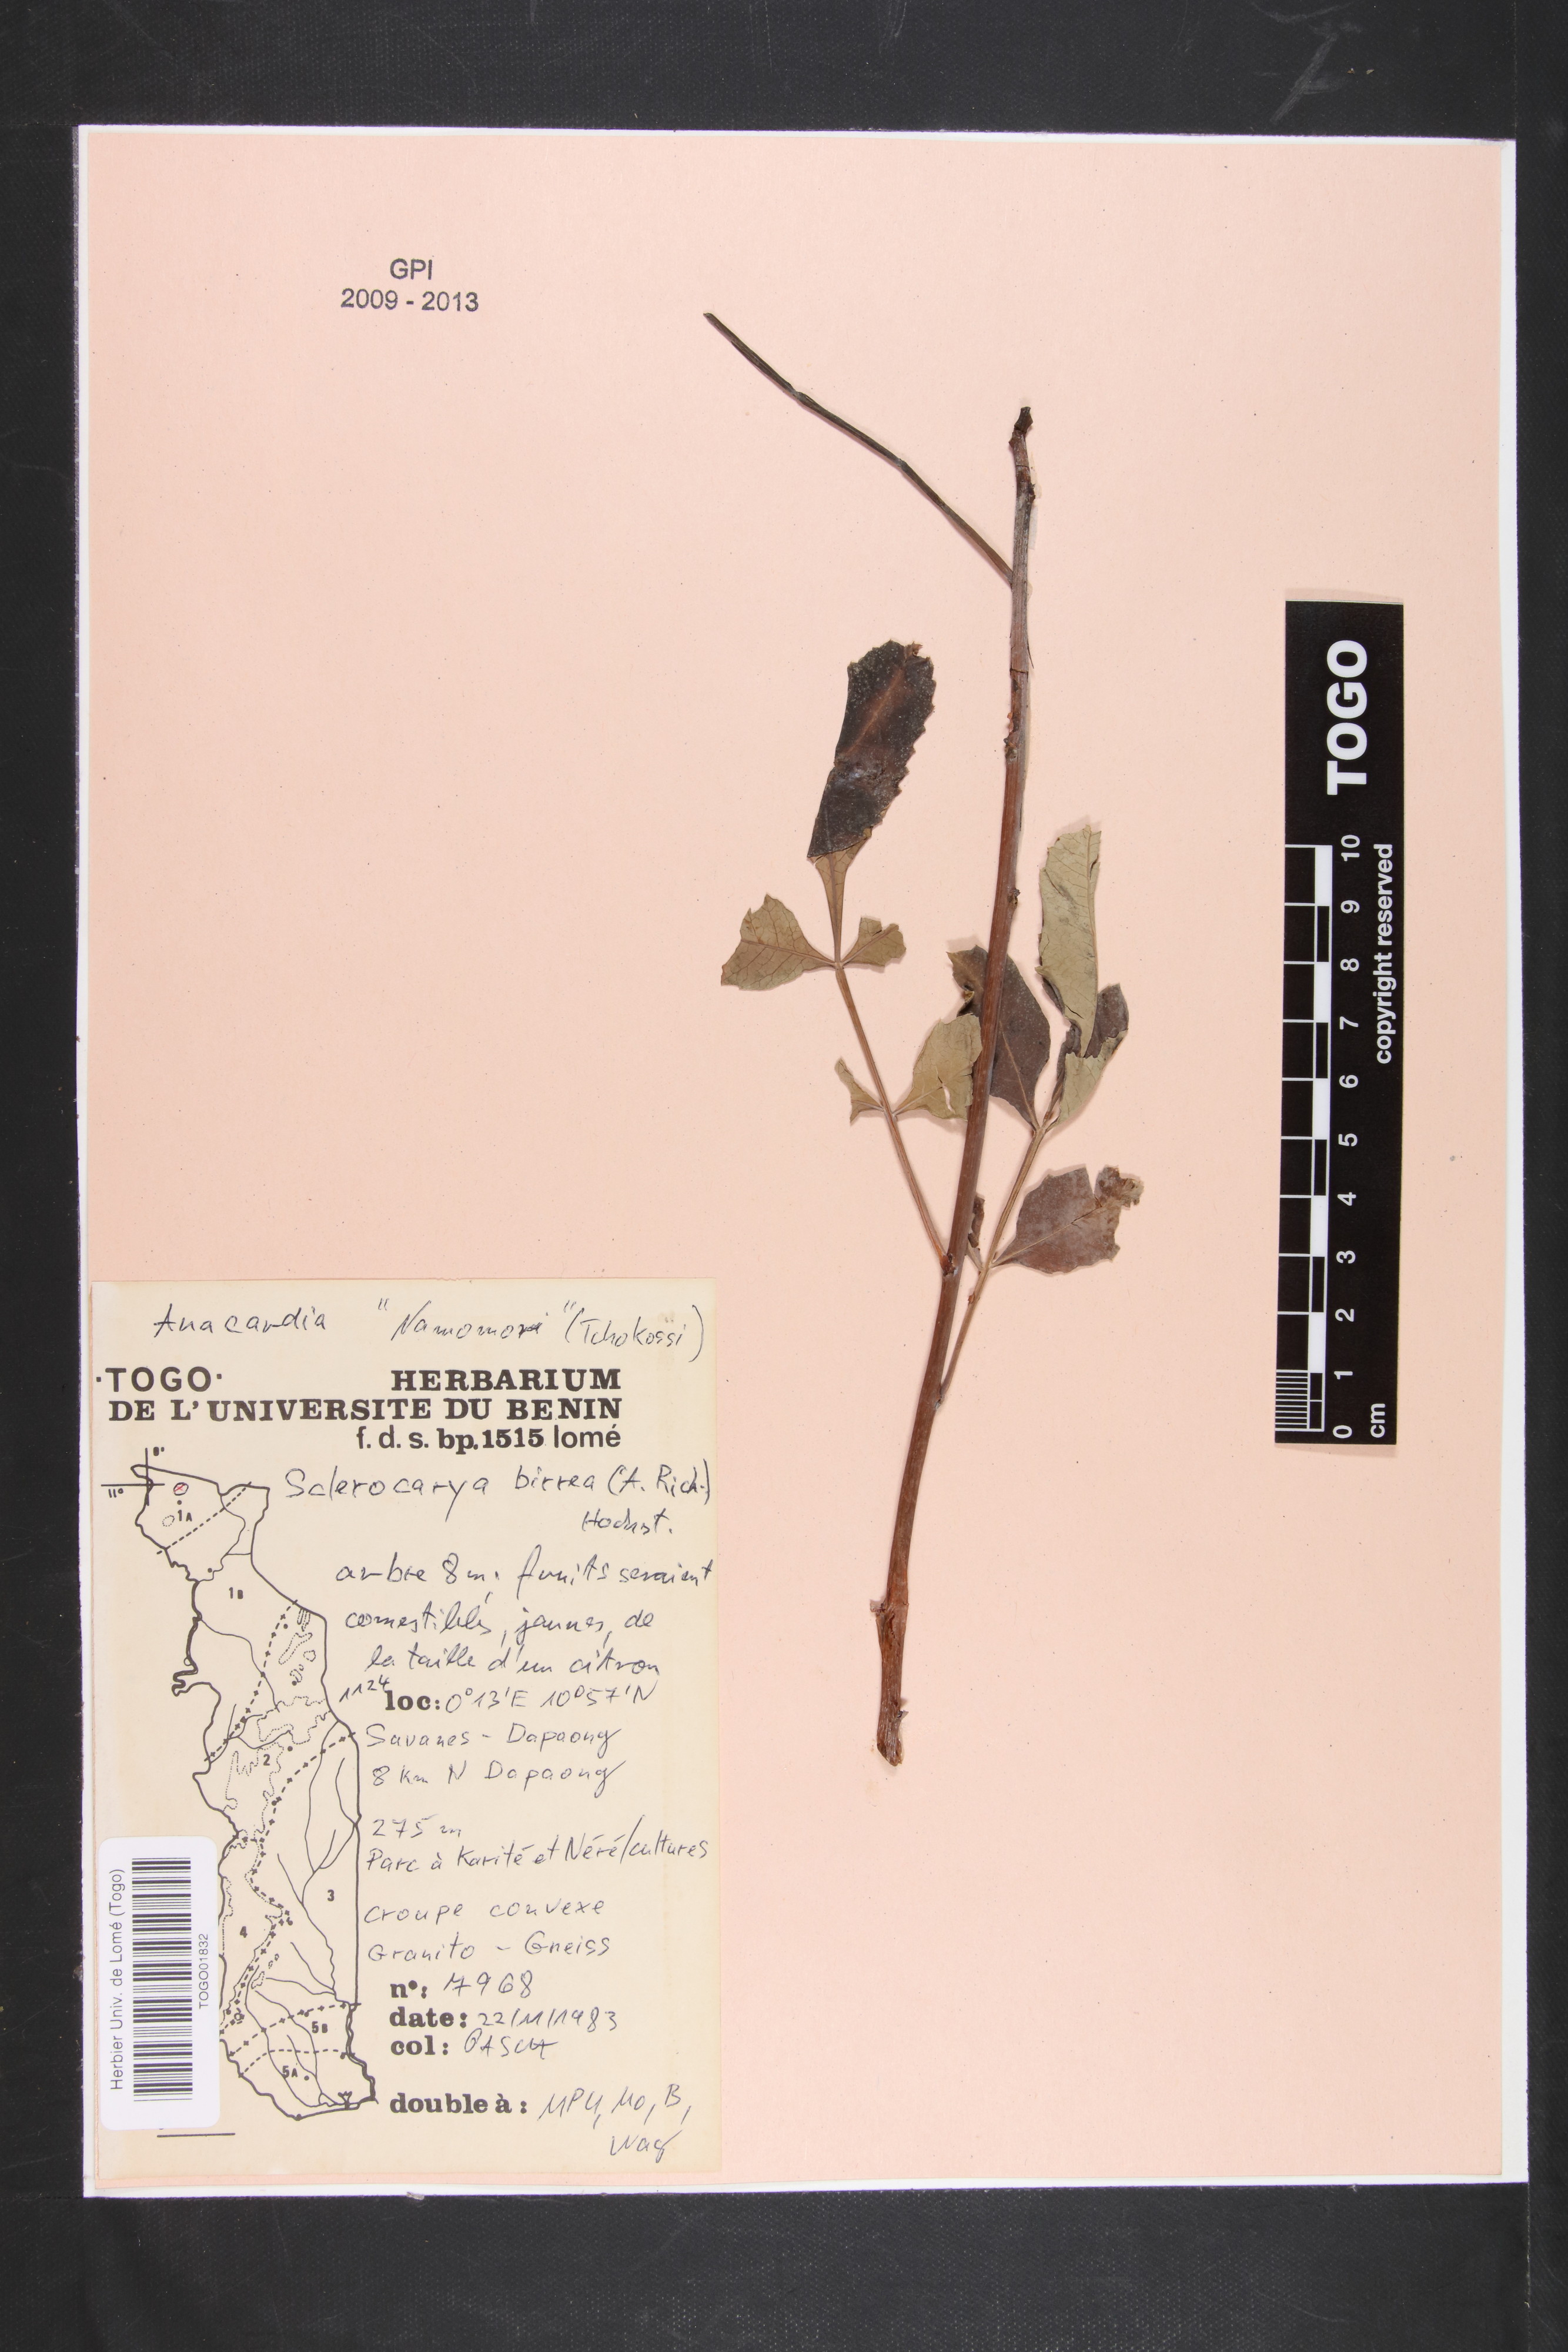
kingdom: Plantae
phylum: Tracheophyta
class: Magnoliopsida
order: Sapindales
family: Anacardiaceae
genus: Sclerocarya
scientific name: Sclerocarya birrea
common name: Marula
